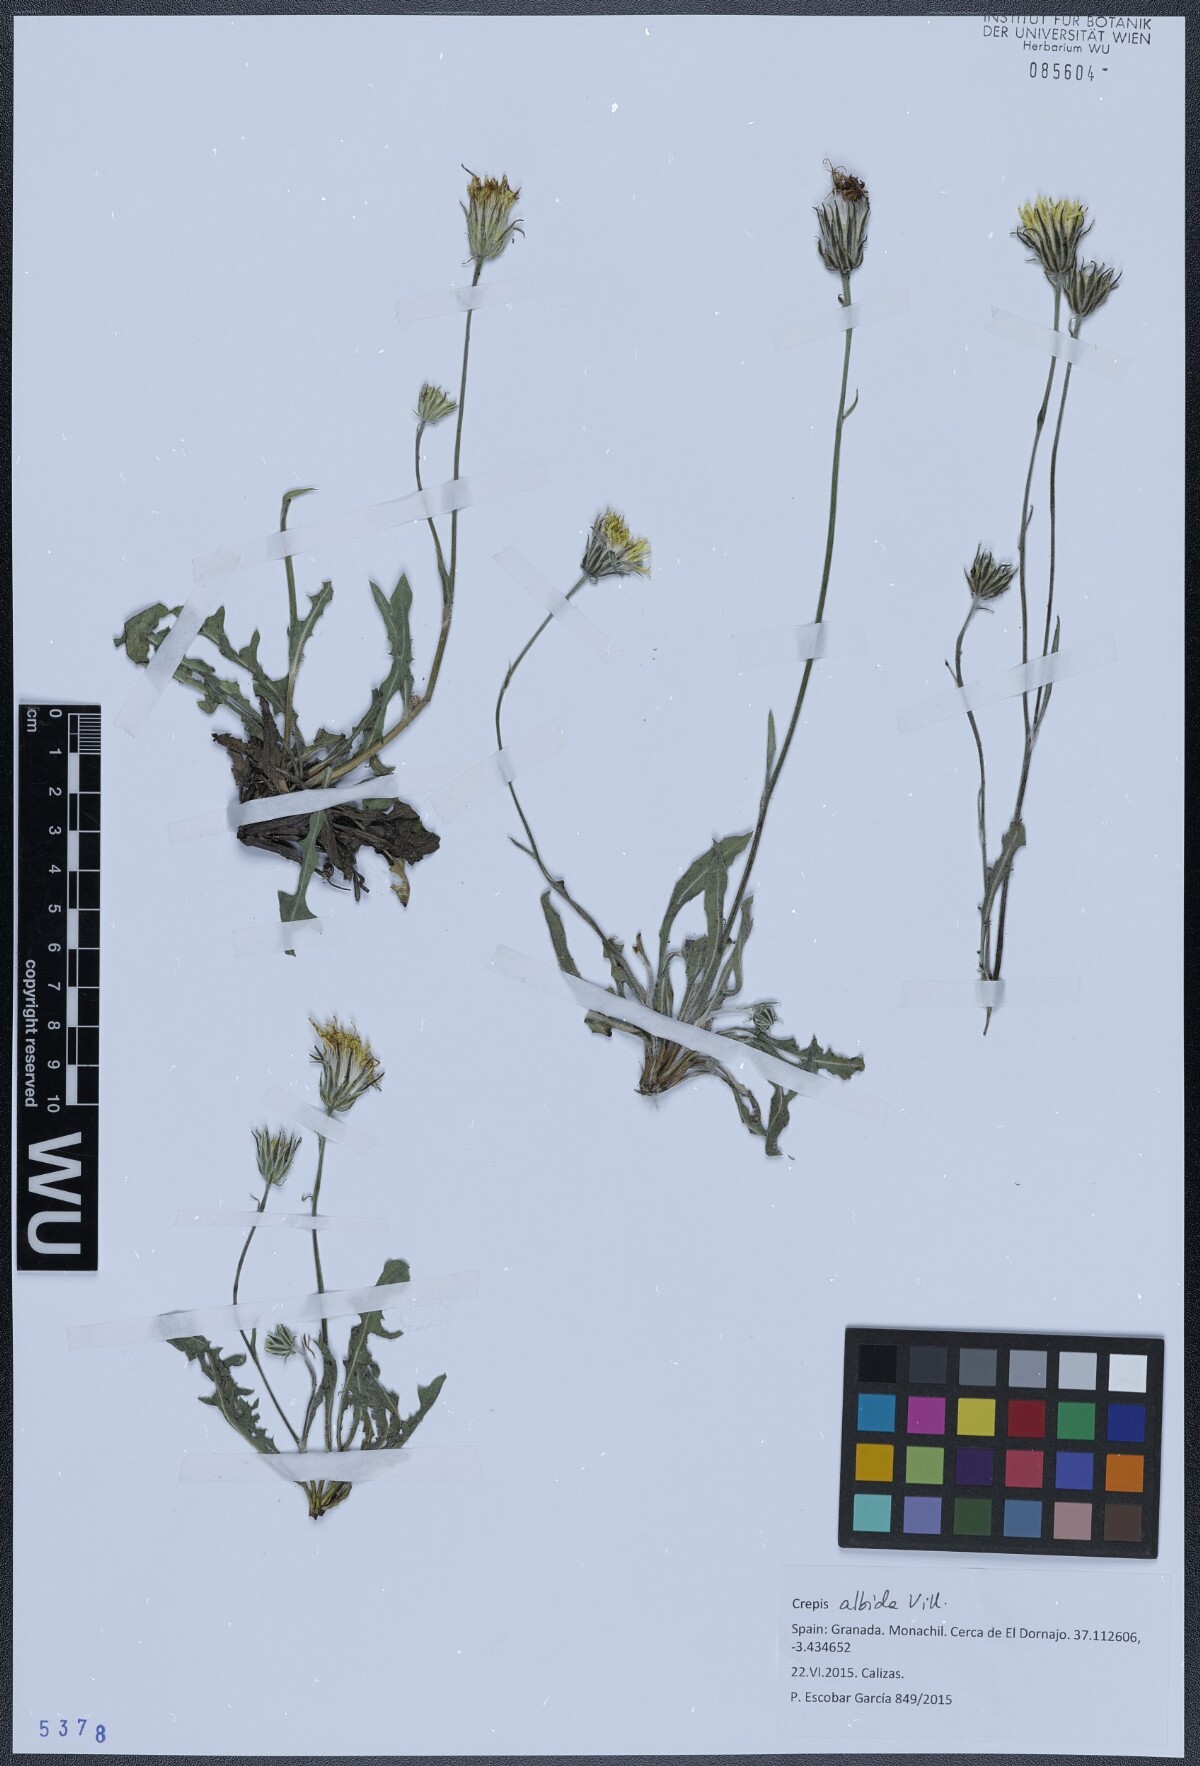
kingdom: Plantae
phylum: Tracheophyta
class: Magnoliopsida
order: Asterales
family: Asteraceae
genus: Crepis
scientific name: Crepis albida
